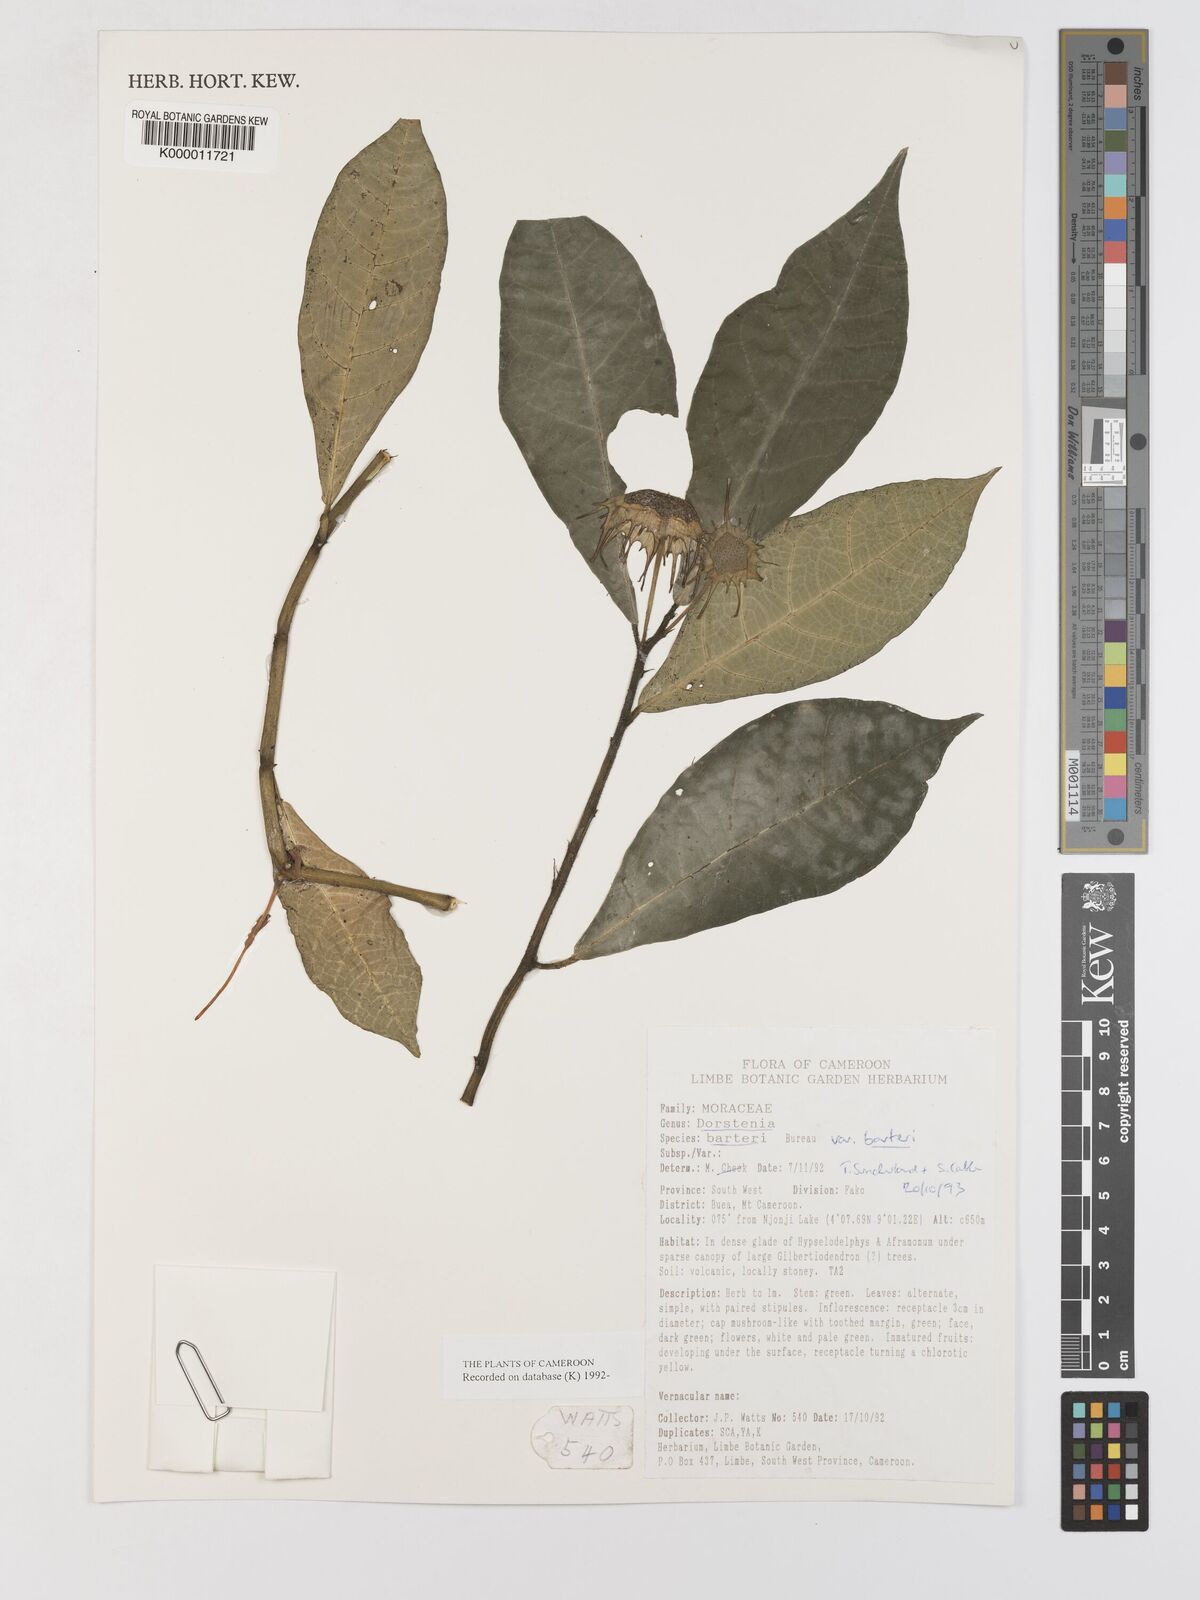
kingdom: Plantae
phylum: Tracheophyta
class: Magnoliopsida
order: Rosales
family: Moraceae
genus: Dorstenia
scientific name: Dorstenia barteri
